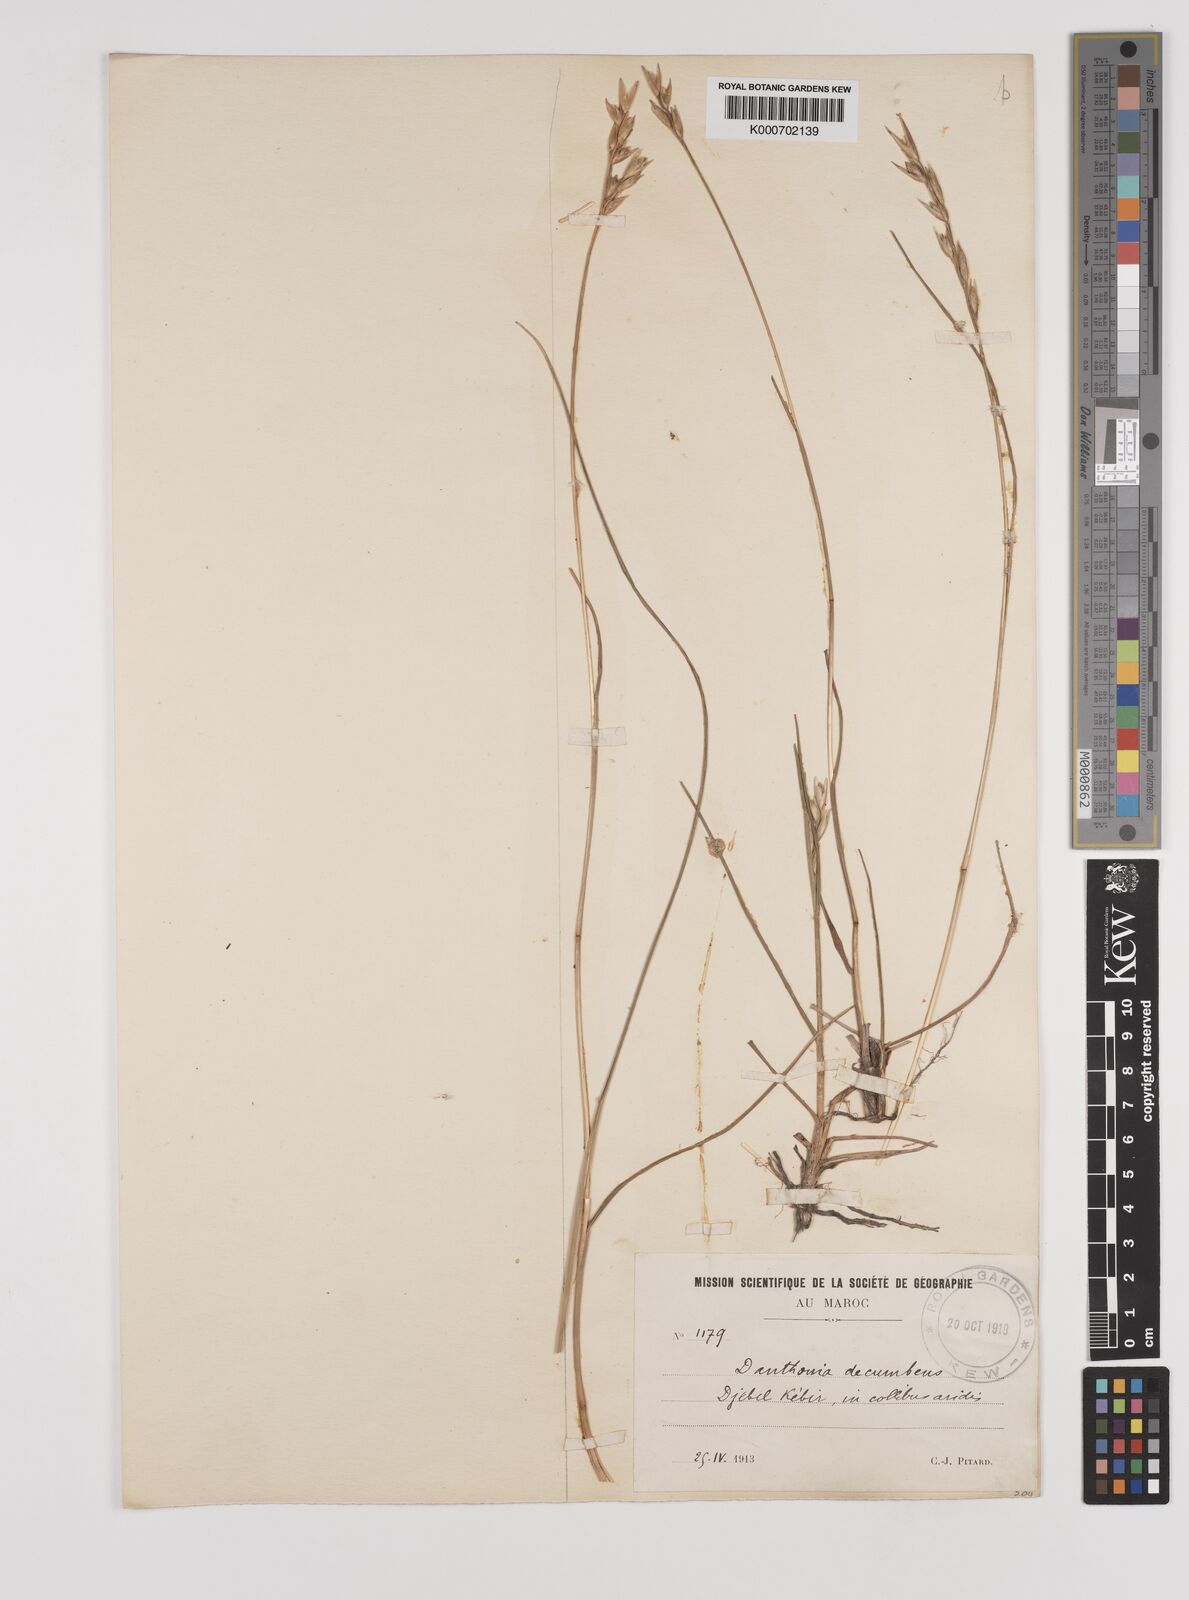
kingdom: Plantae
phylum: Tracheophyta
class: Liliopsida
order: Poales
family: Poaceae
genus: Danthonia
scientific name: Danthonia decumbens
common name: Common heathgrass
